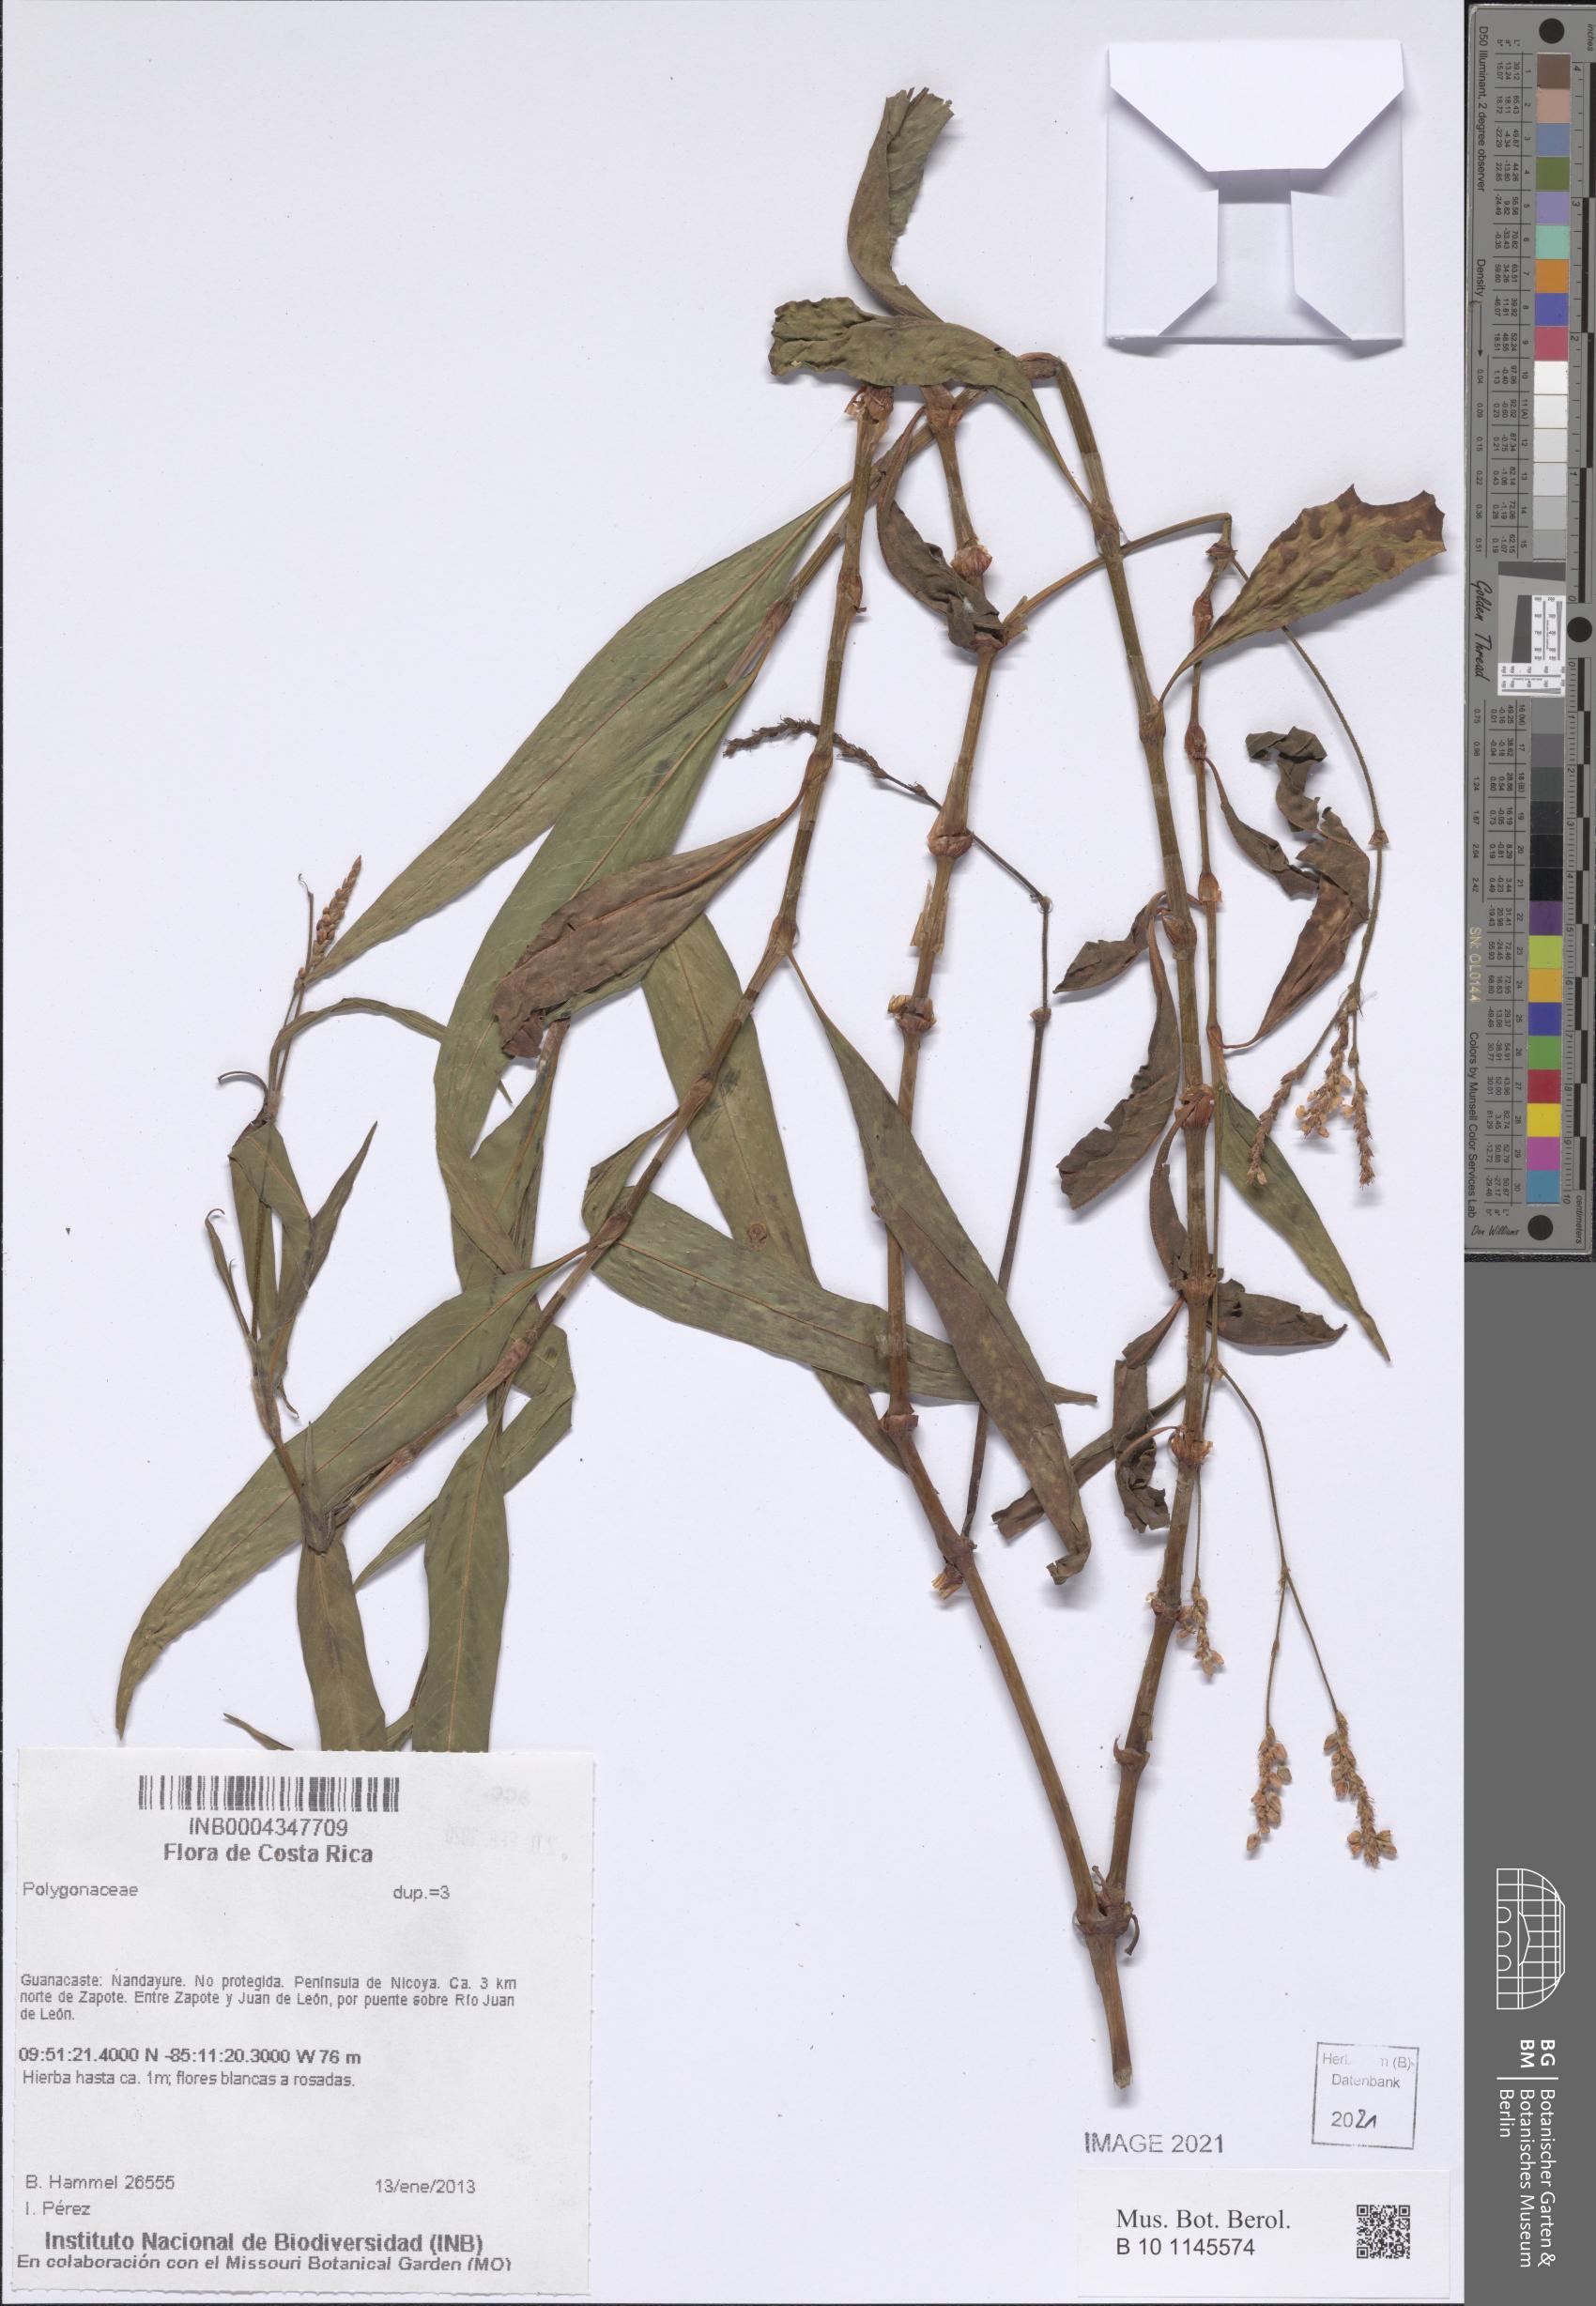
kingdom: Plantae
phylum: Tracheophyta
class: Magnoliopsida
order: Caryophyllales
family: Polygonaceae
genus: Persicaria
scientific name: Persicaria segetum
